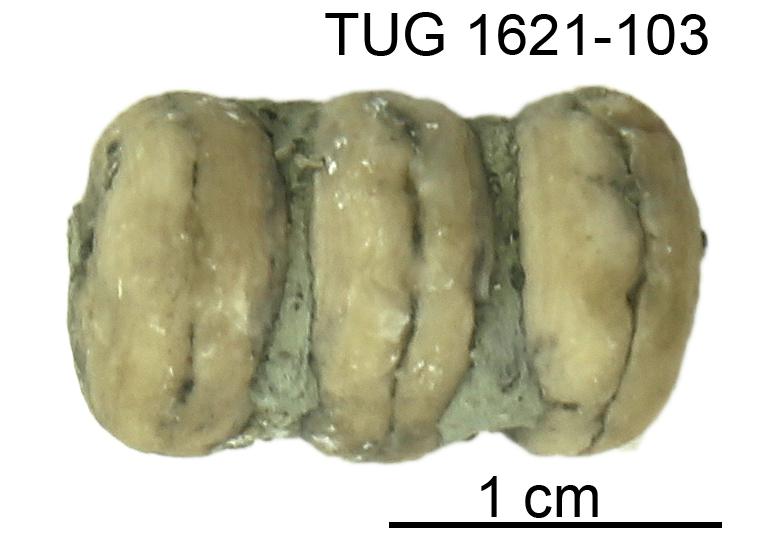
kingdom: Animalia
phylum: Mollusca
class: Cephalopoda
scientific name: Cephalopoda
